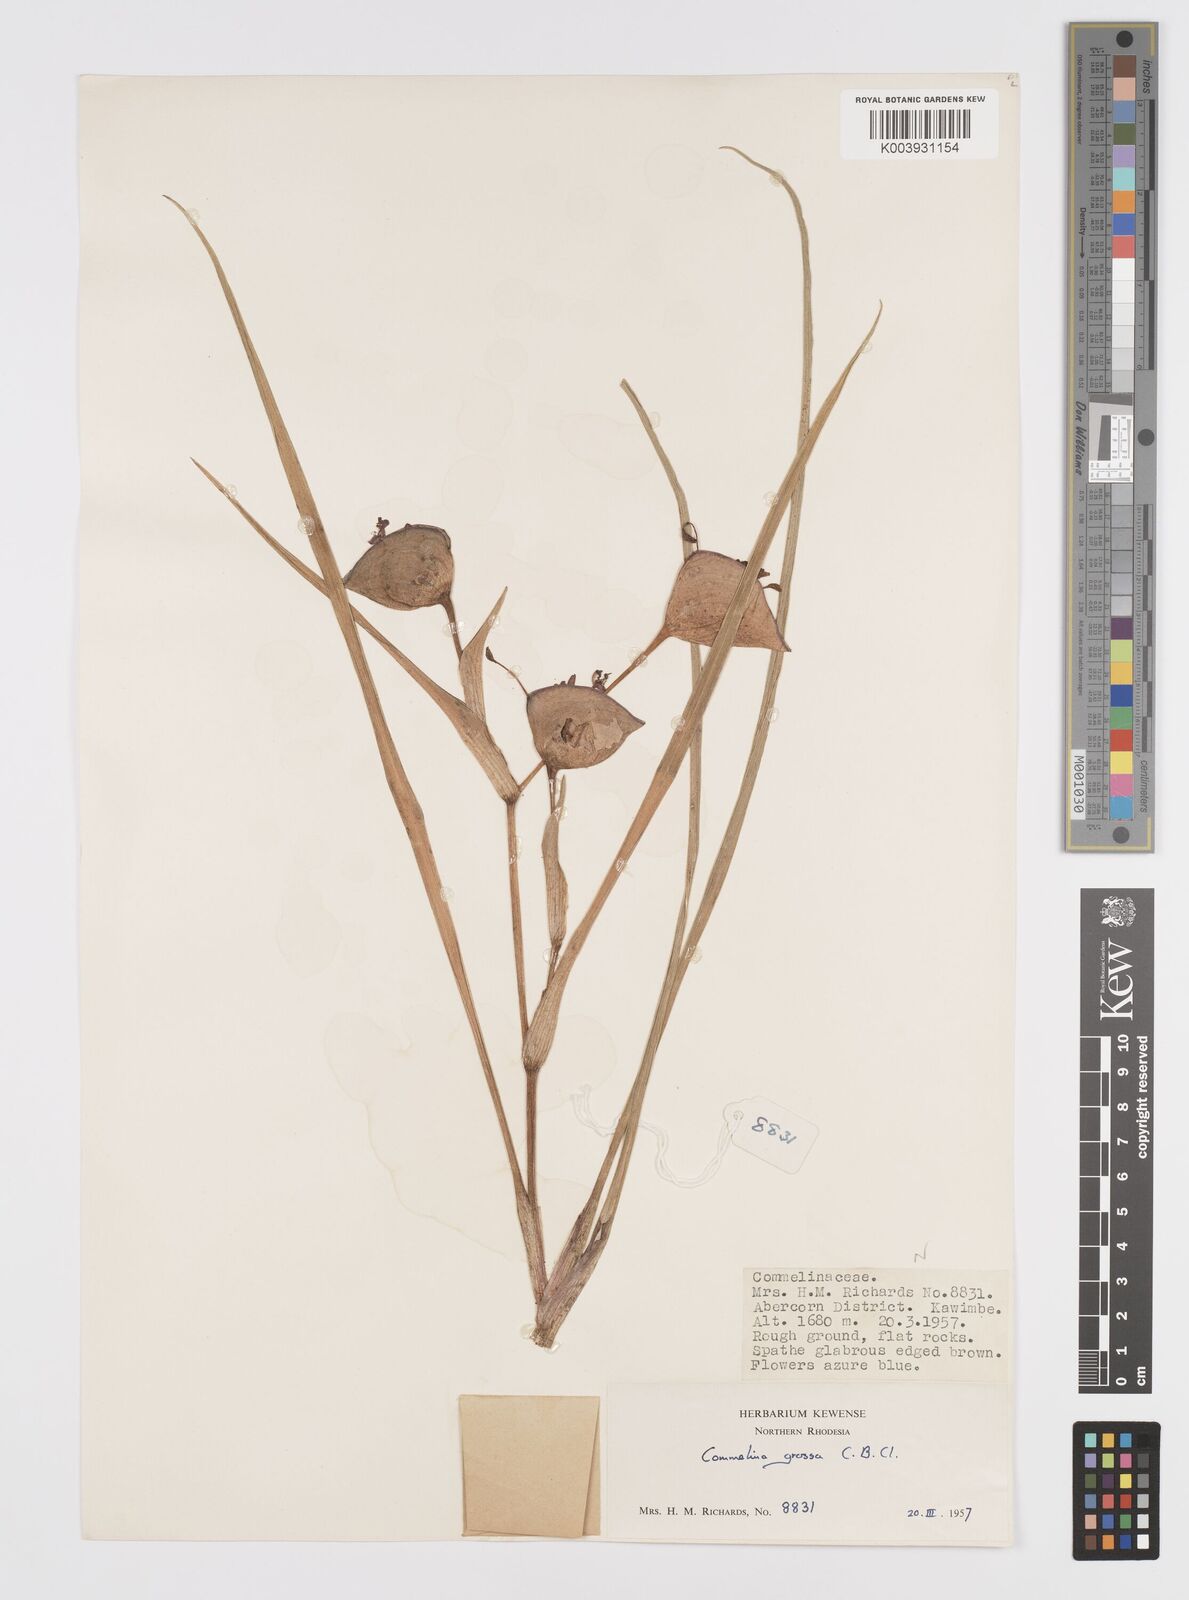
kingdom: Plantae
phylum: Tracheophyta
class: Liliopsida
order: Commelinales
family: Commelinaceae
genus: Commelina
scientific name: Commelina grossa
